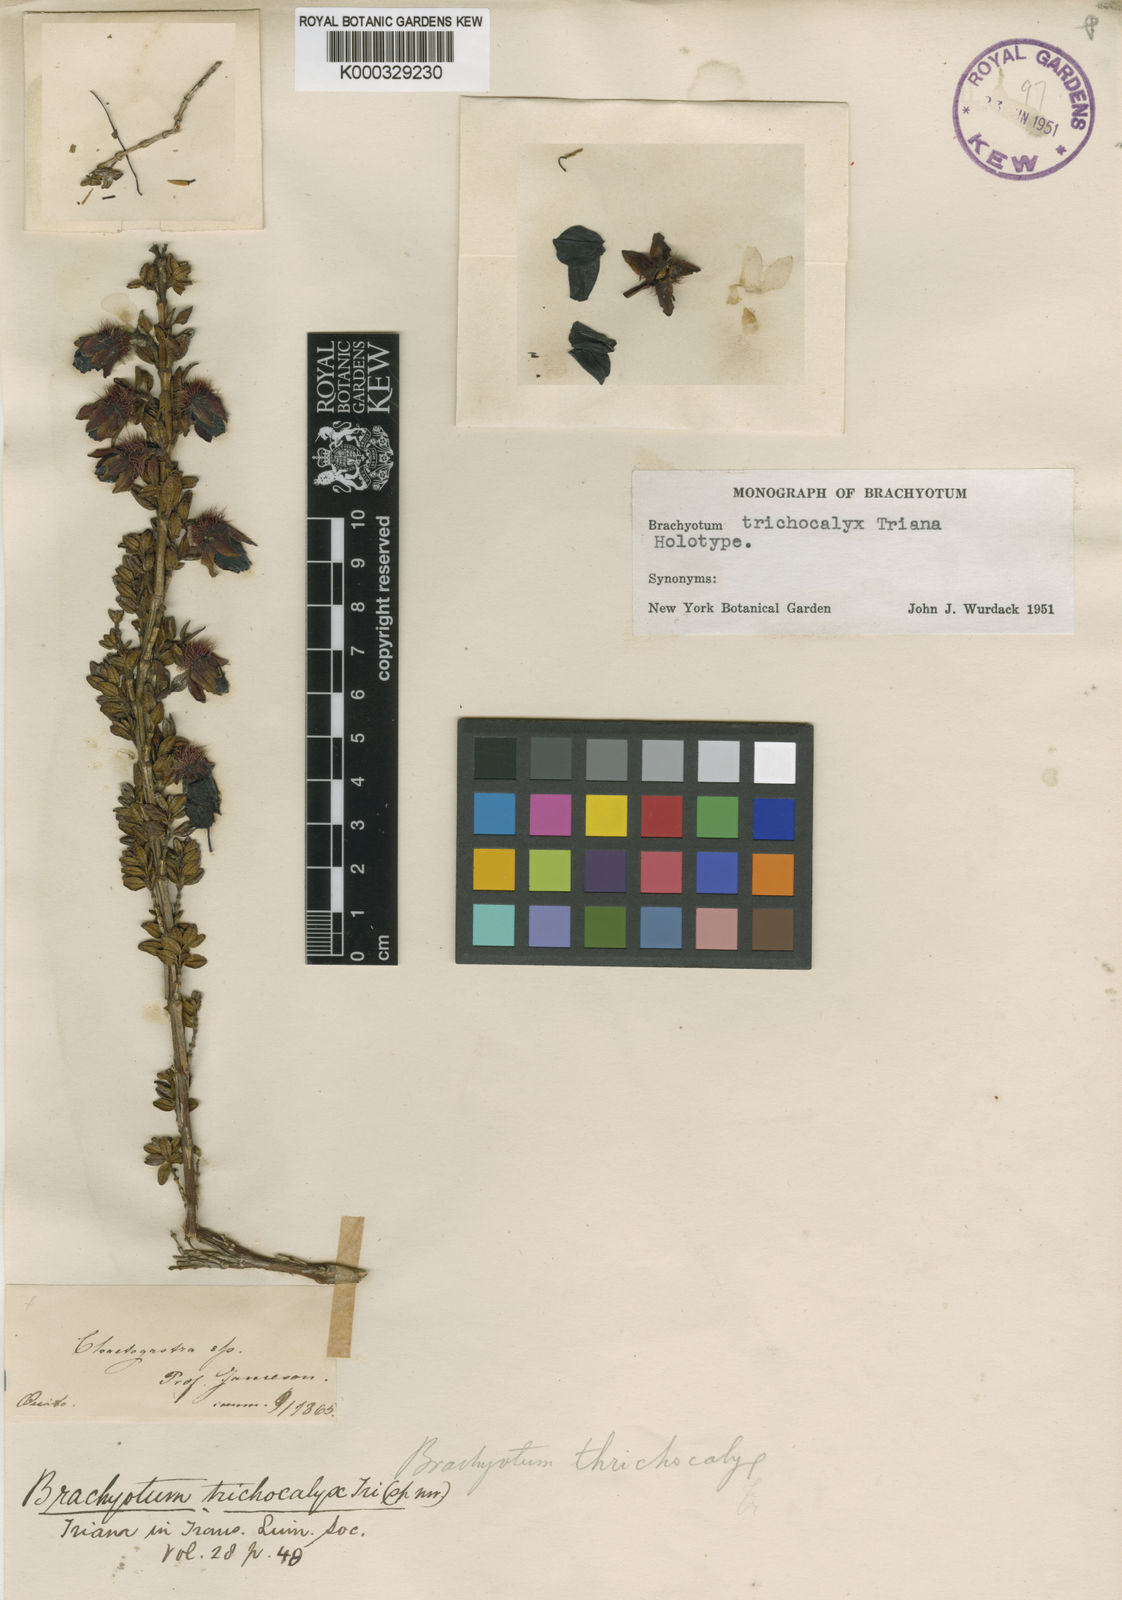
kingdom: Plantae
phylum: Tracheophyta
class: Magnoliopsida
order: Myrtales
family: Melastomataceae
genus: Brachyotum
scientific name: Brachyotum trichocalyx
